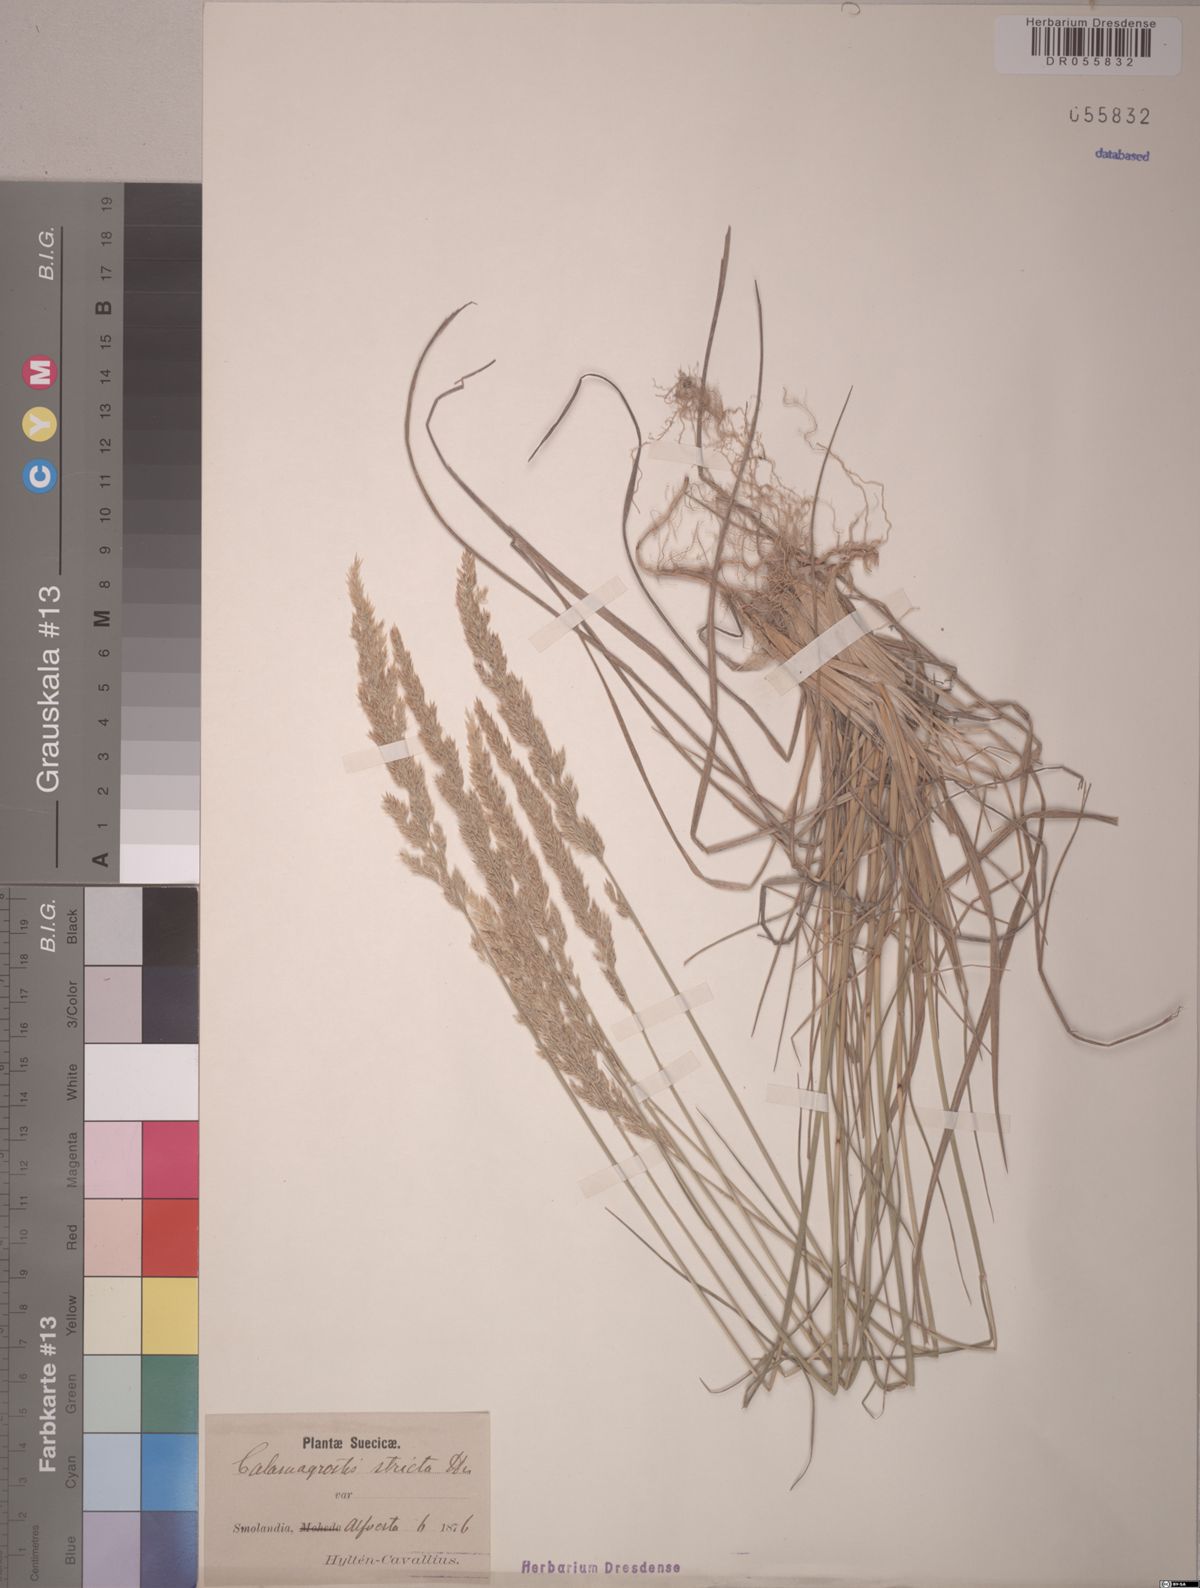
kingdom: Plantae
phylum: Tracheophyta
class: Liliopsida
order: Poales
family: Poaceae
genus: Calamagrostis
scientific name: Calamagrostis stricta
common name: Narrow small-reed
